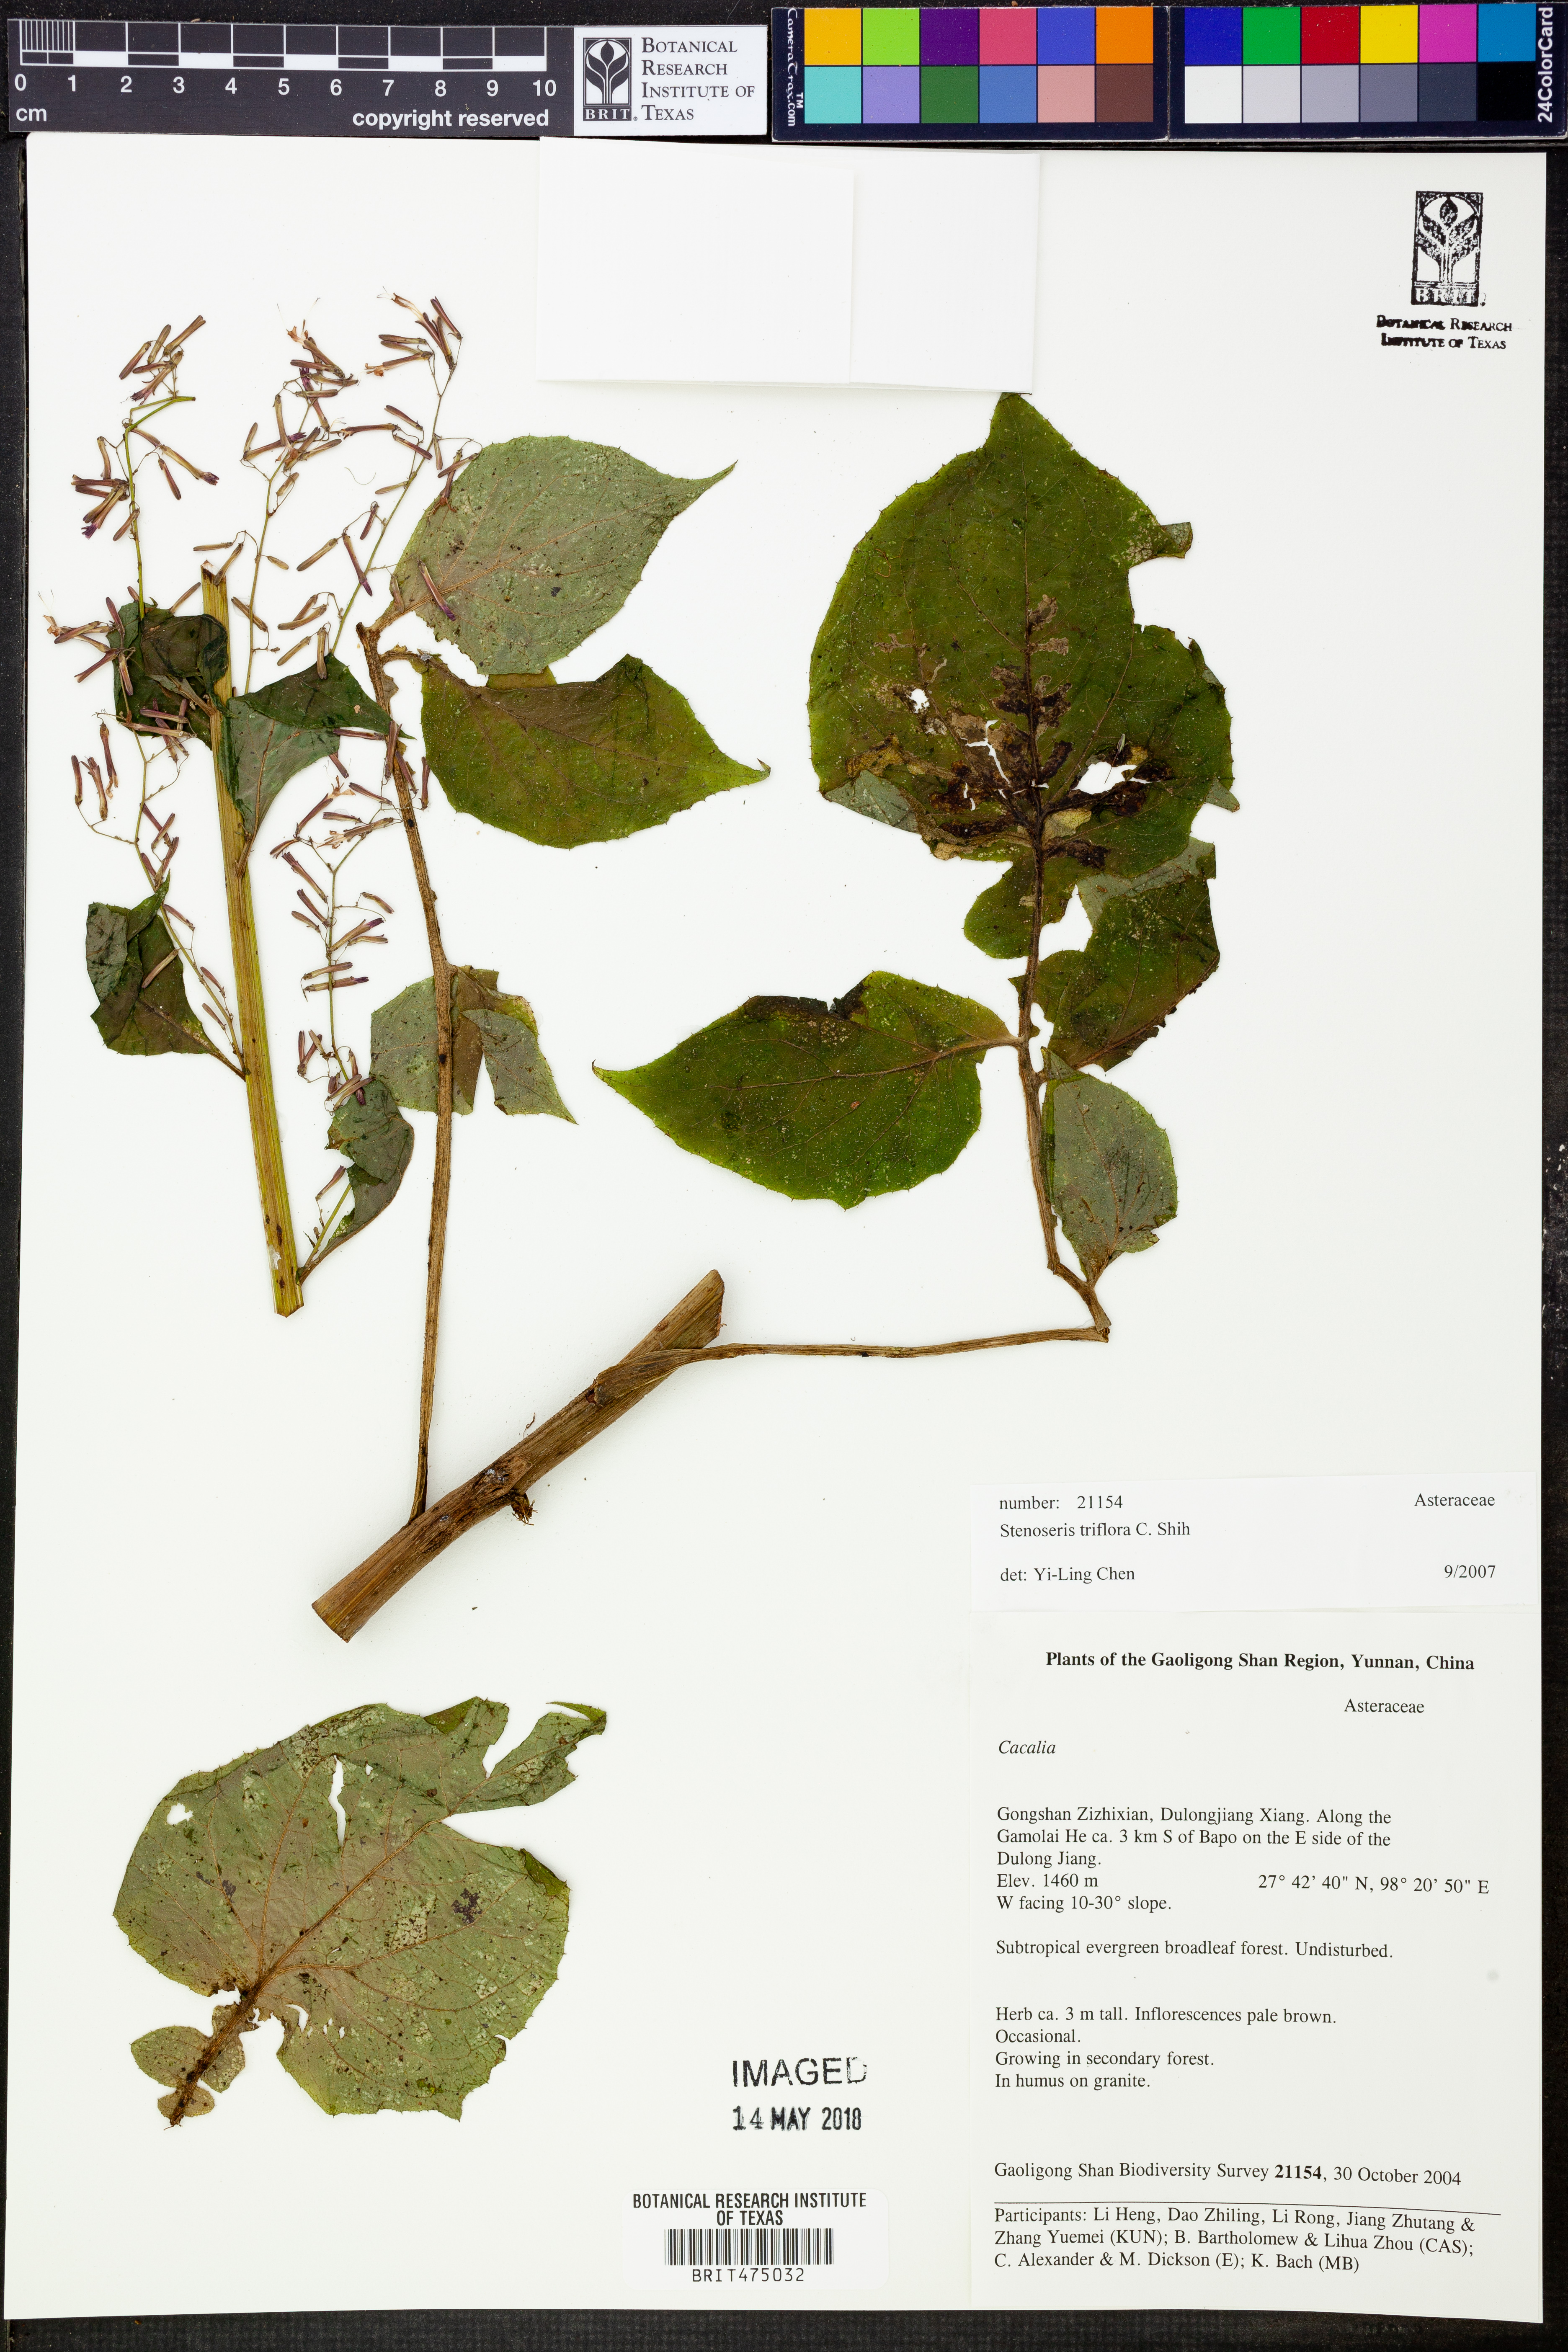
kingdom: Plantae
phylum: Tracheophyta
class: Magnoliopsida
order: Asterales
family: Asteraceae
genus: Paraprenanthes
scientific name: Paraprenanthes triflora
